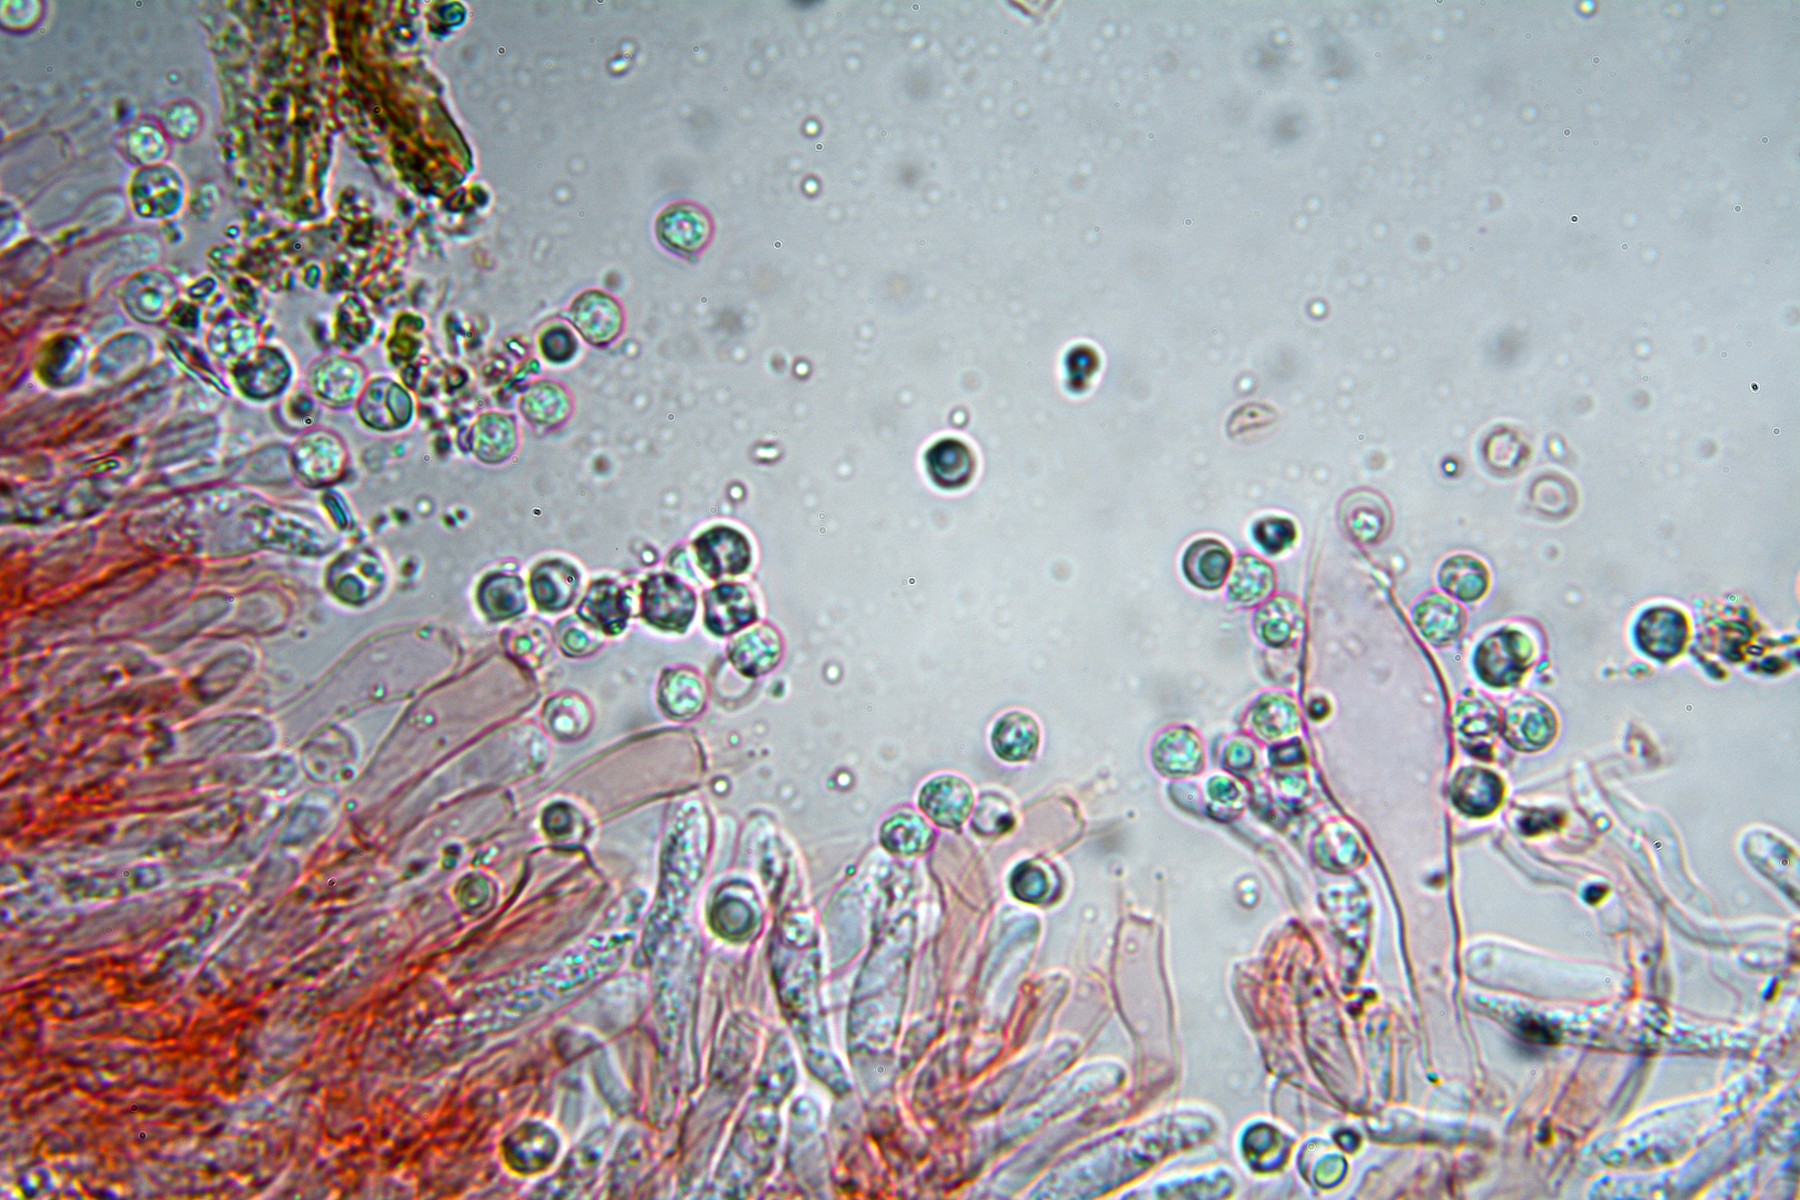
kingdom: Fungi
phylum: Basidiomycota
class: Agaricomycetes
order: Russulales
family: Peniophoraceae
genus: Gloiothele
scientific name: Gloiothele citrina
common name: citronskorpe
